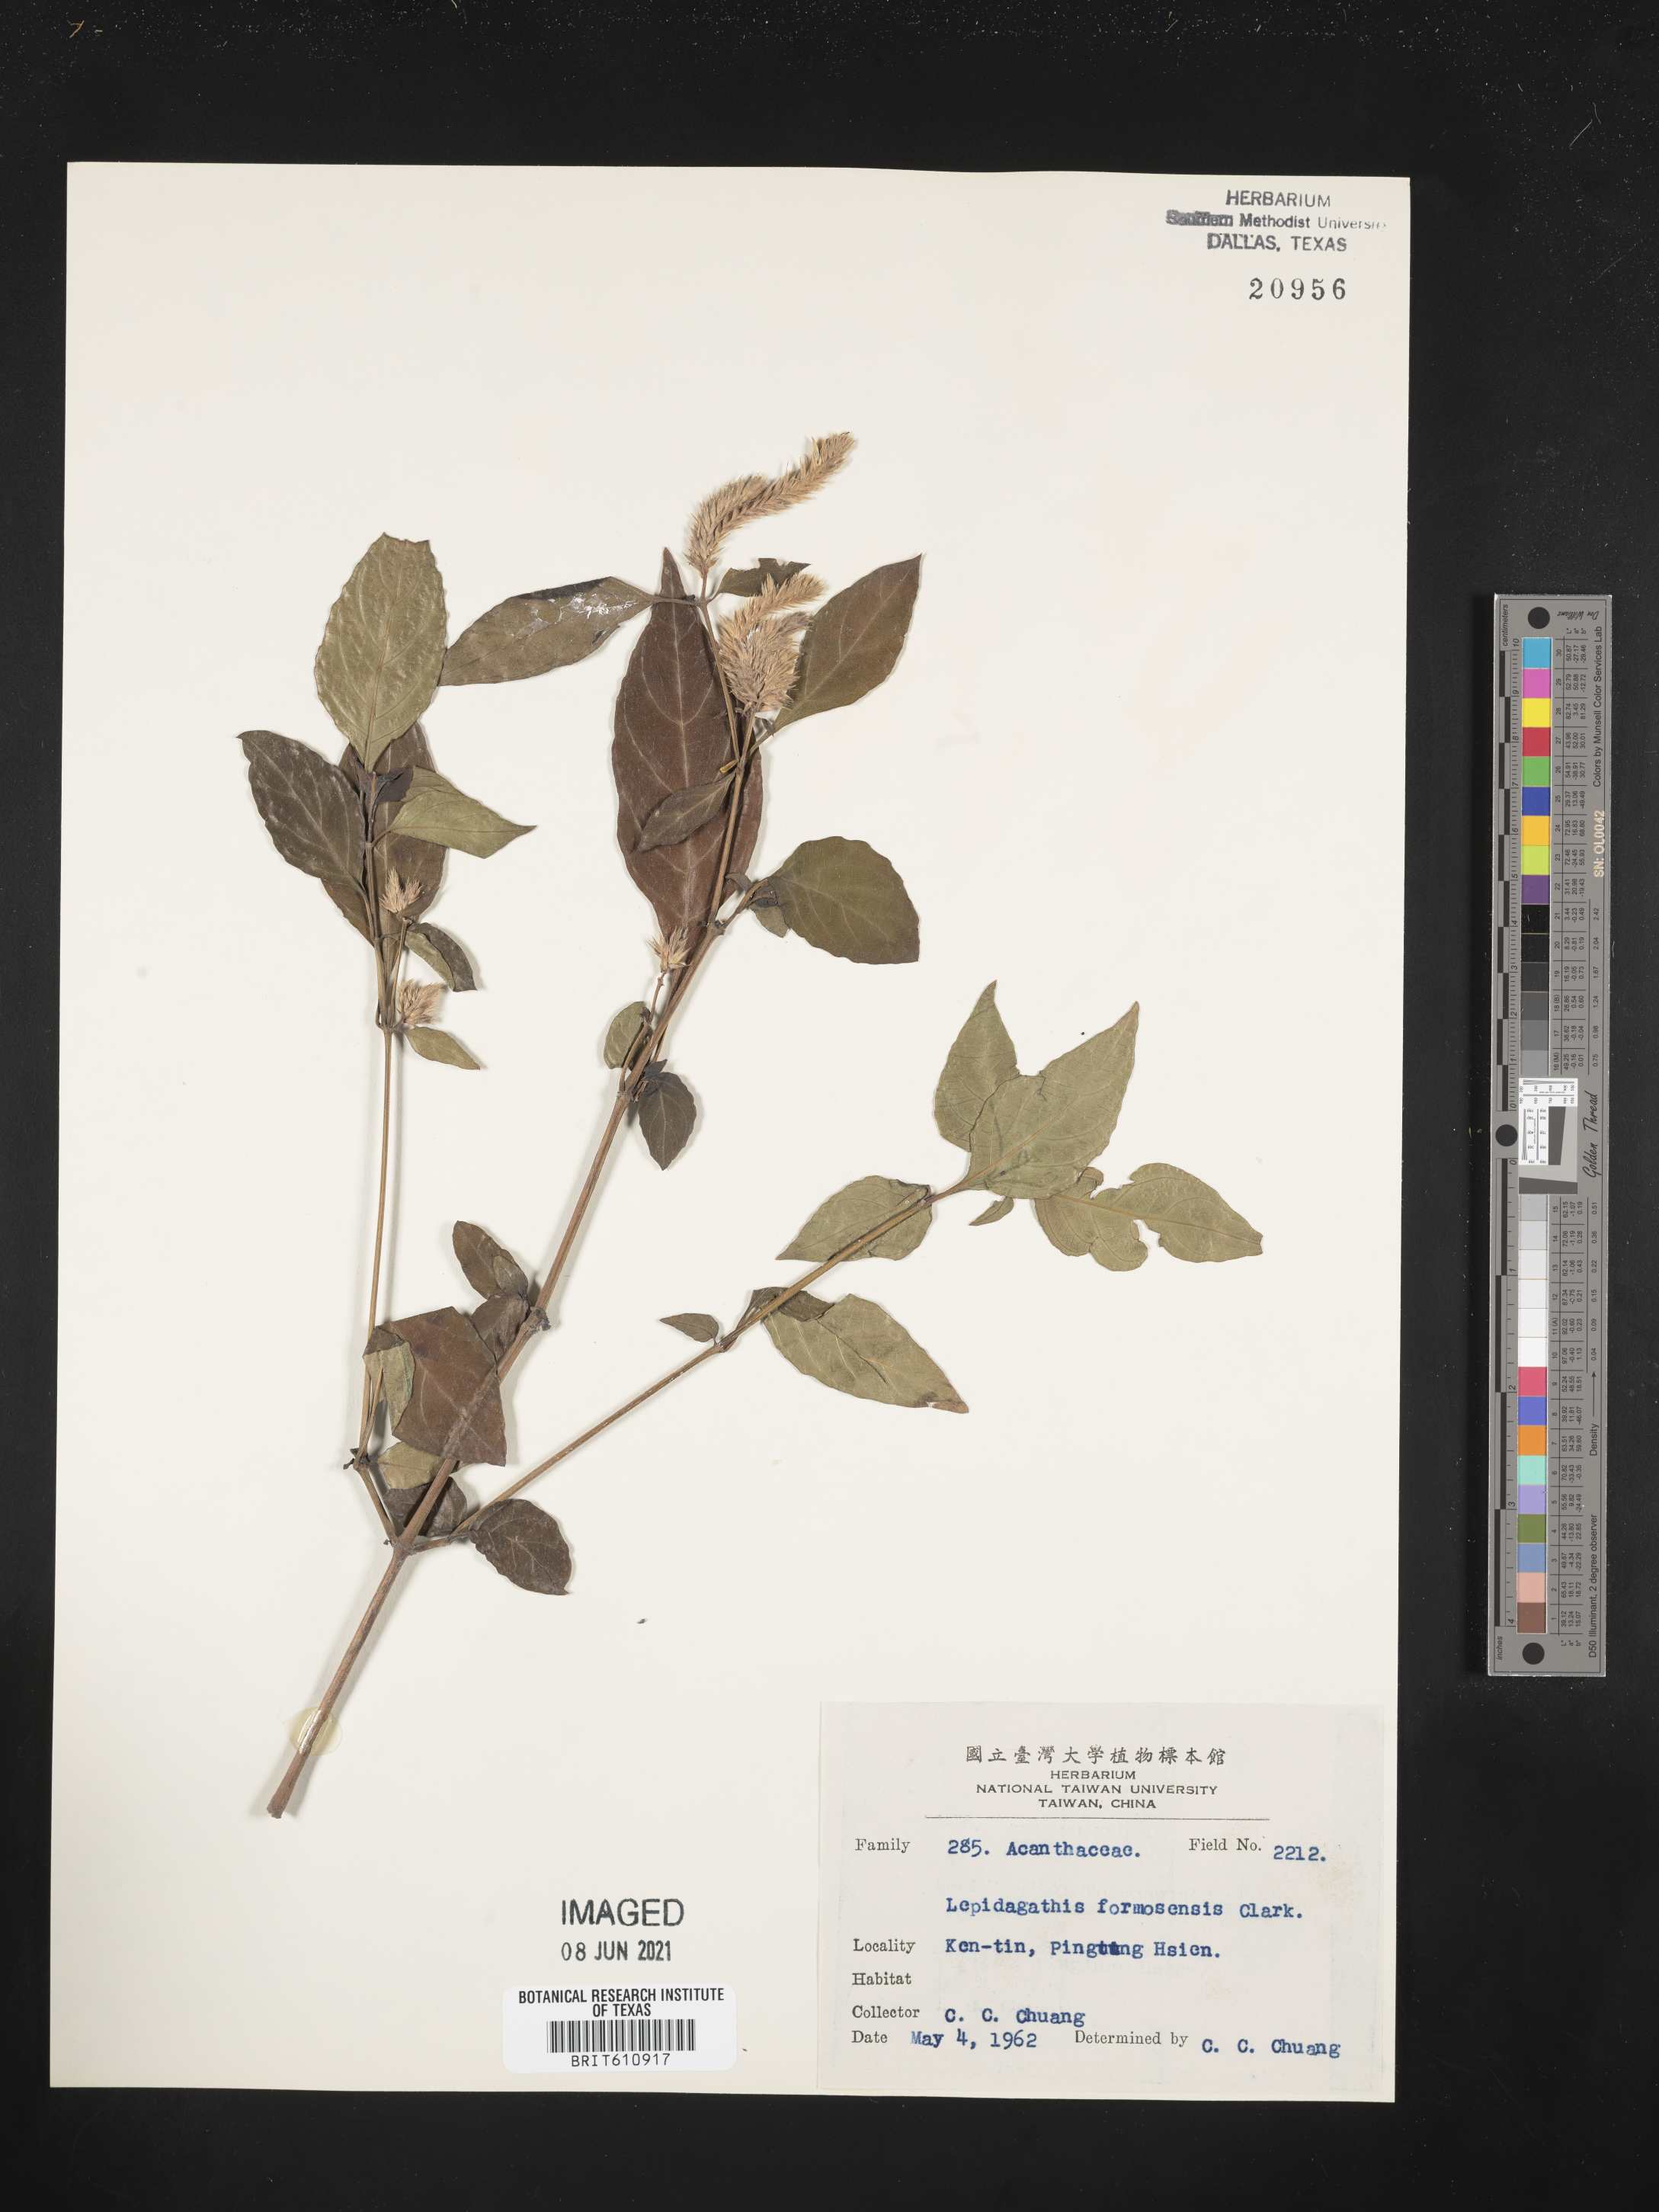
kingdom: Plantae
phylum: Tracheophyta
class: Magnoliopsida
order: Lamiales
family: Acanthaceae
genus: Lepidagathis
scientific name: Lepidagathis formosensis
